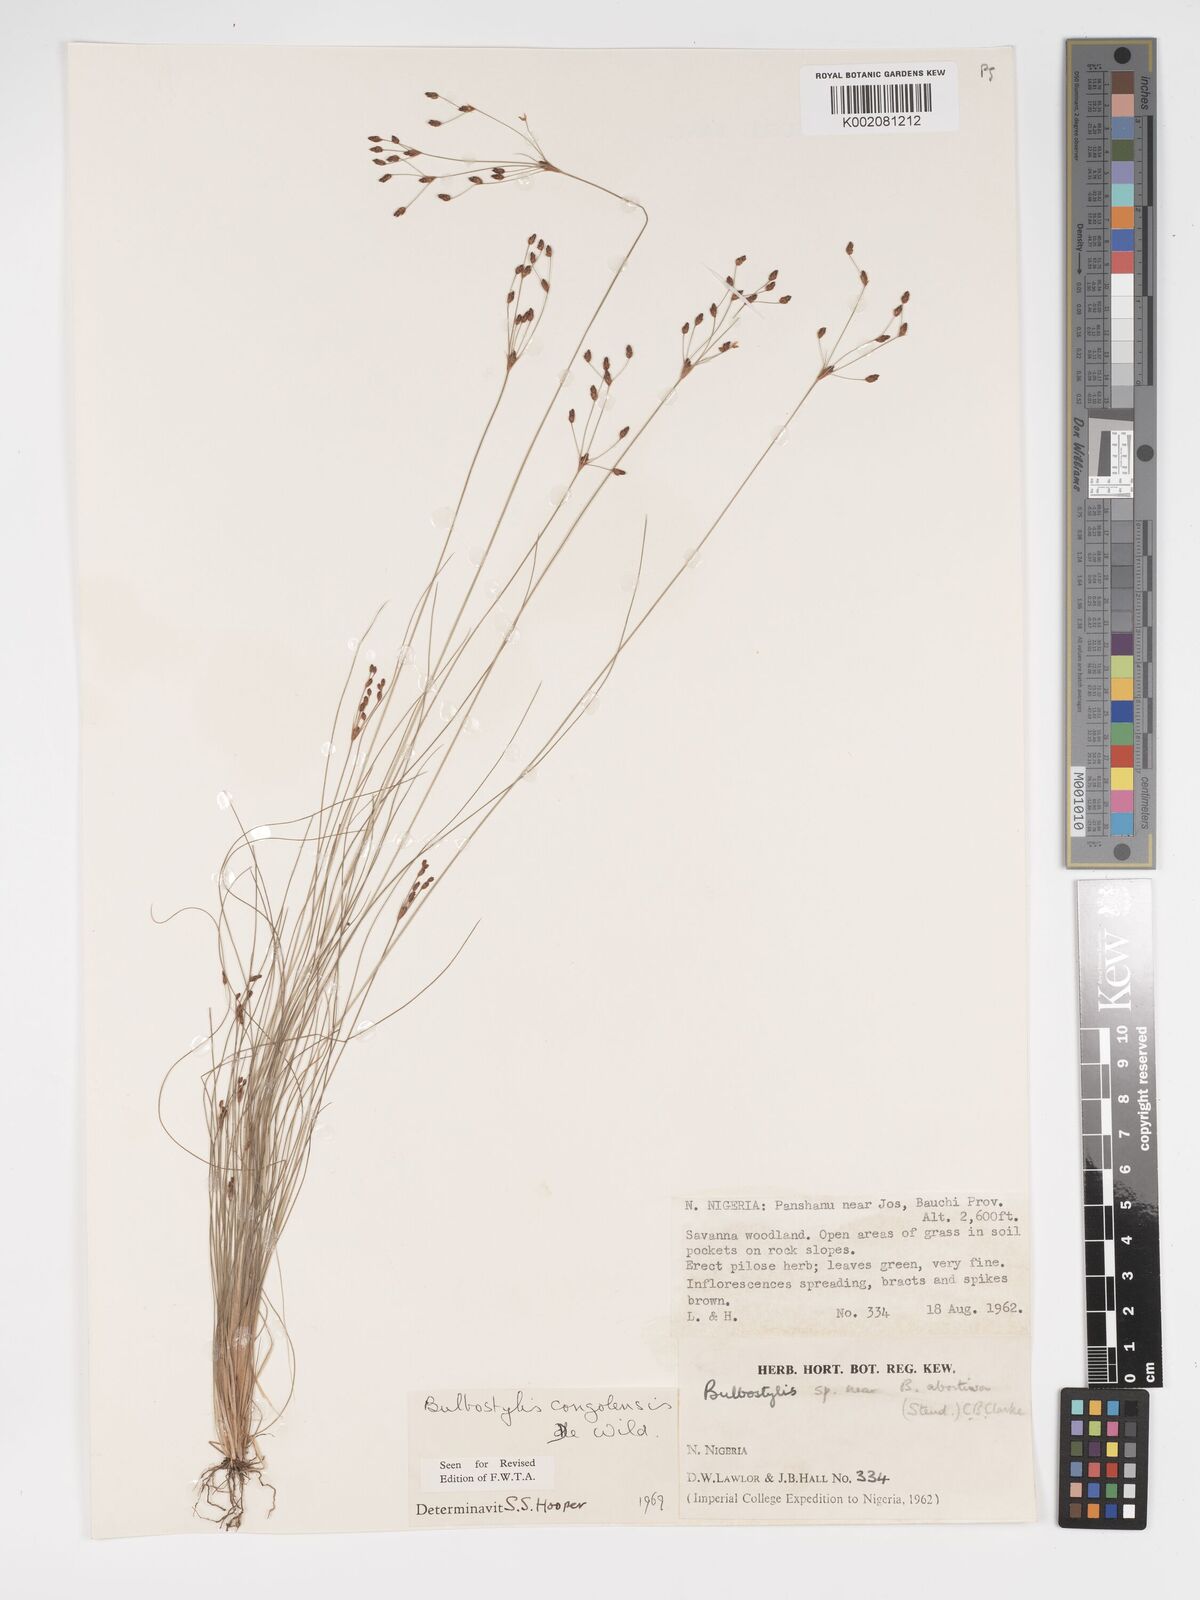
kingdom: Plantae
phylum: Tracheophyta
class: Liliopsida
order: Poales
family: Cyperaceae
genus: Bulbostylis
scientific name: Bulbostylis congolensis
